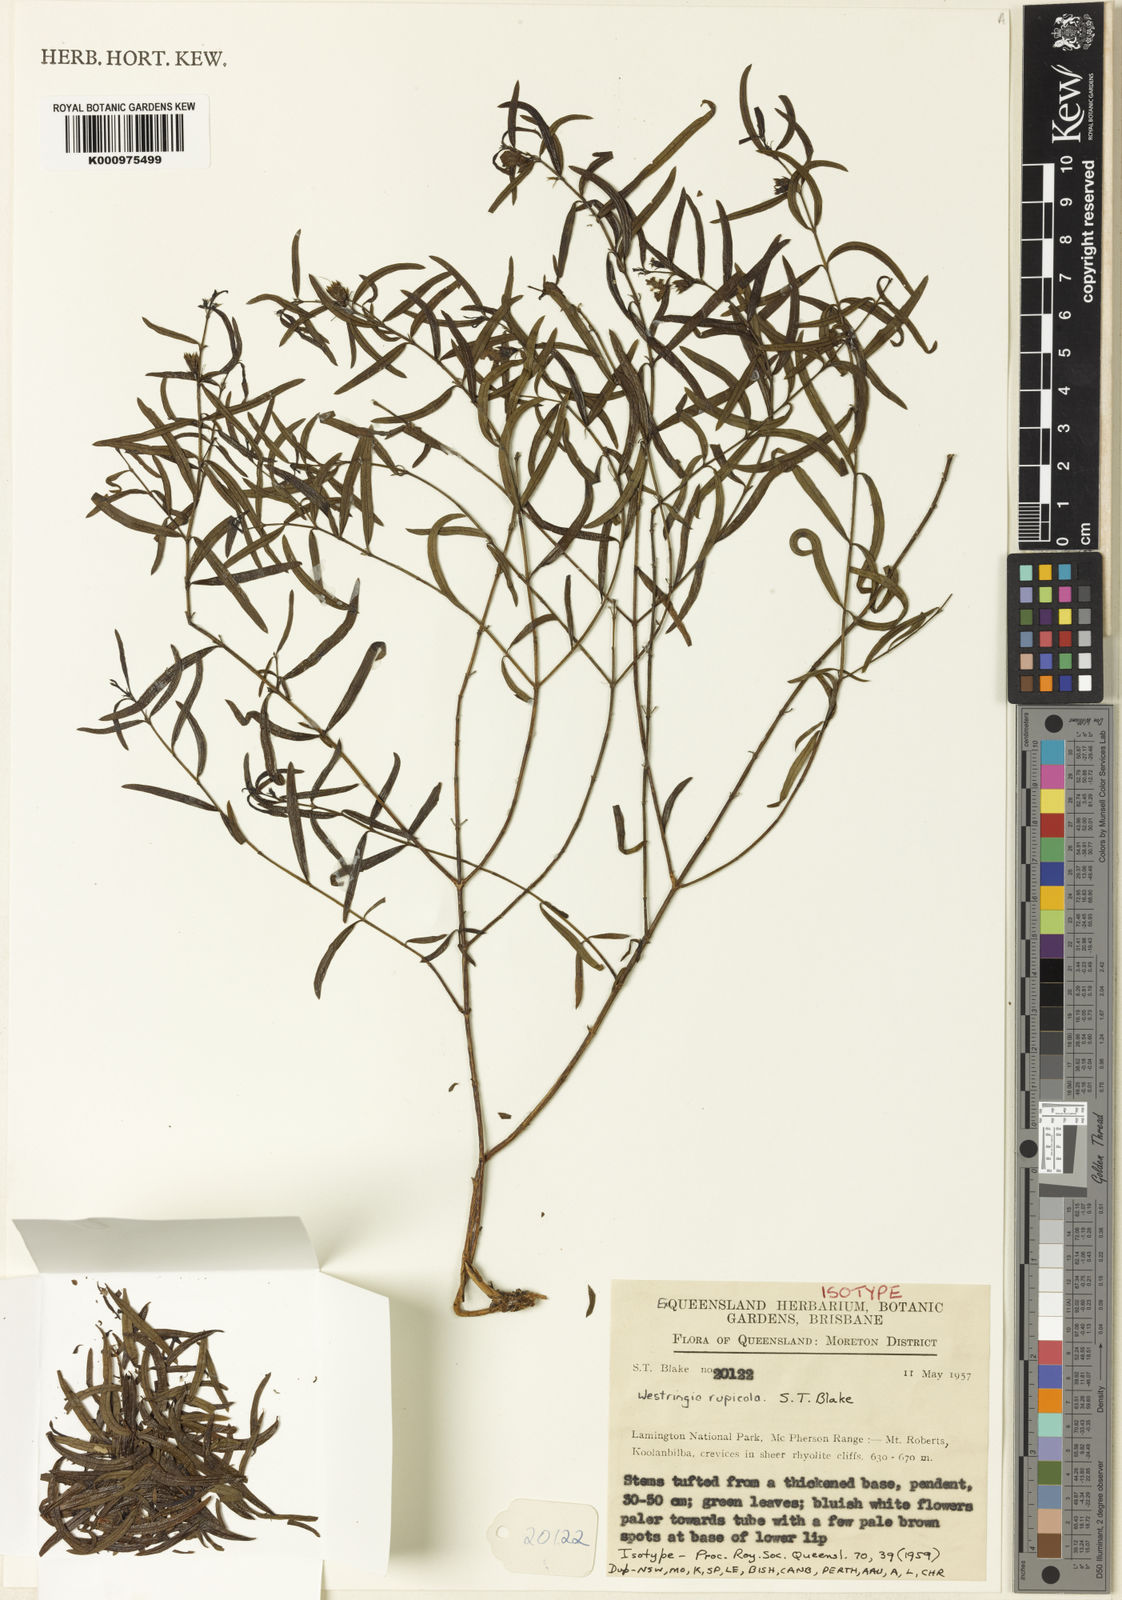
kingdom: Plantae
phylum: Tracheophyta
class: Magnoliopsida
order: Lamiales
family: Lamiaceae
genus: Westringia
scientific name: Westringia rupicola
